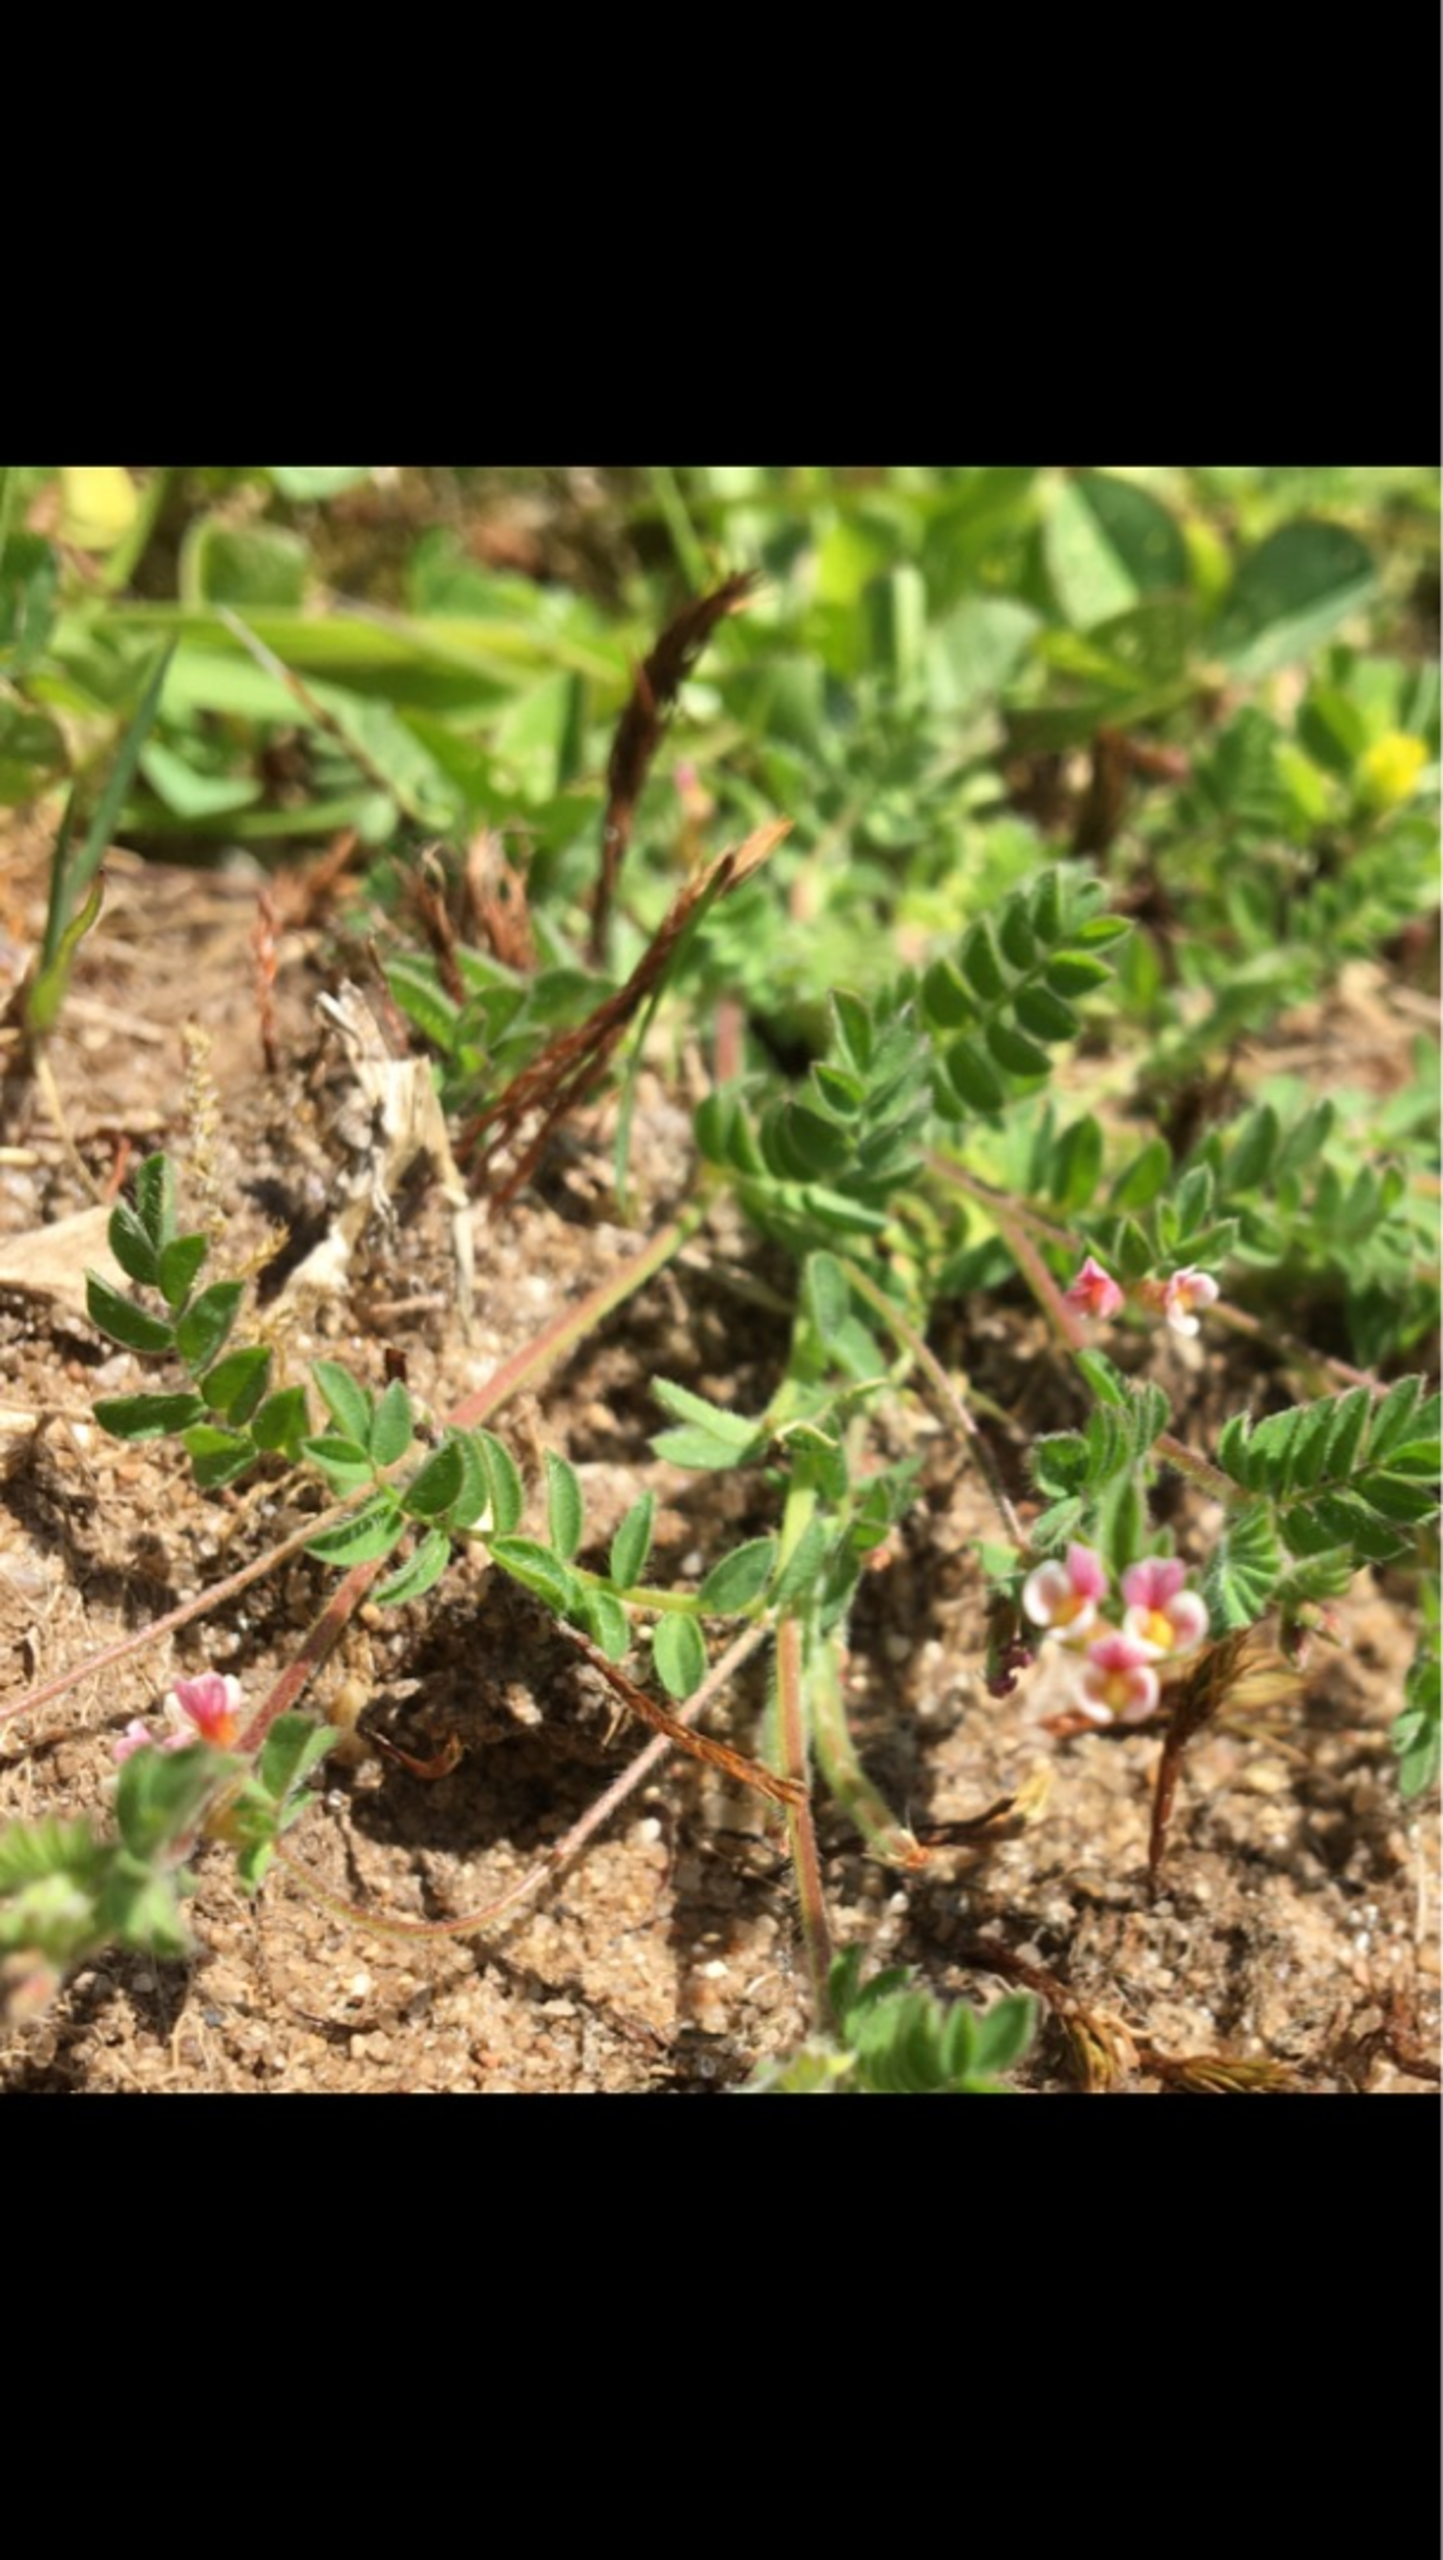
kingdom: Plantae
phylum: Tracheophyta
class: Magnoliopsida
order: Fabales
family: Fabaceae
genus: Ornithopus
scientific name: Ornithopus perpusillus
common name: Liden fugleklo
